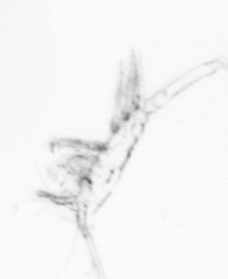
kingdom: Animalia
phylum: Arthropoda
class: Copepoda
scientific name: Copepoda
